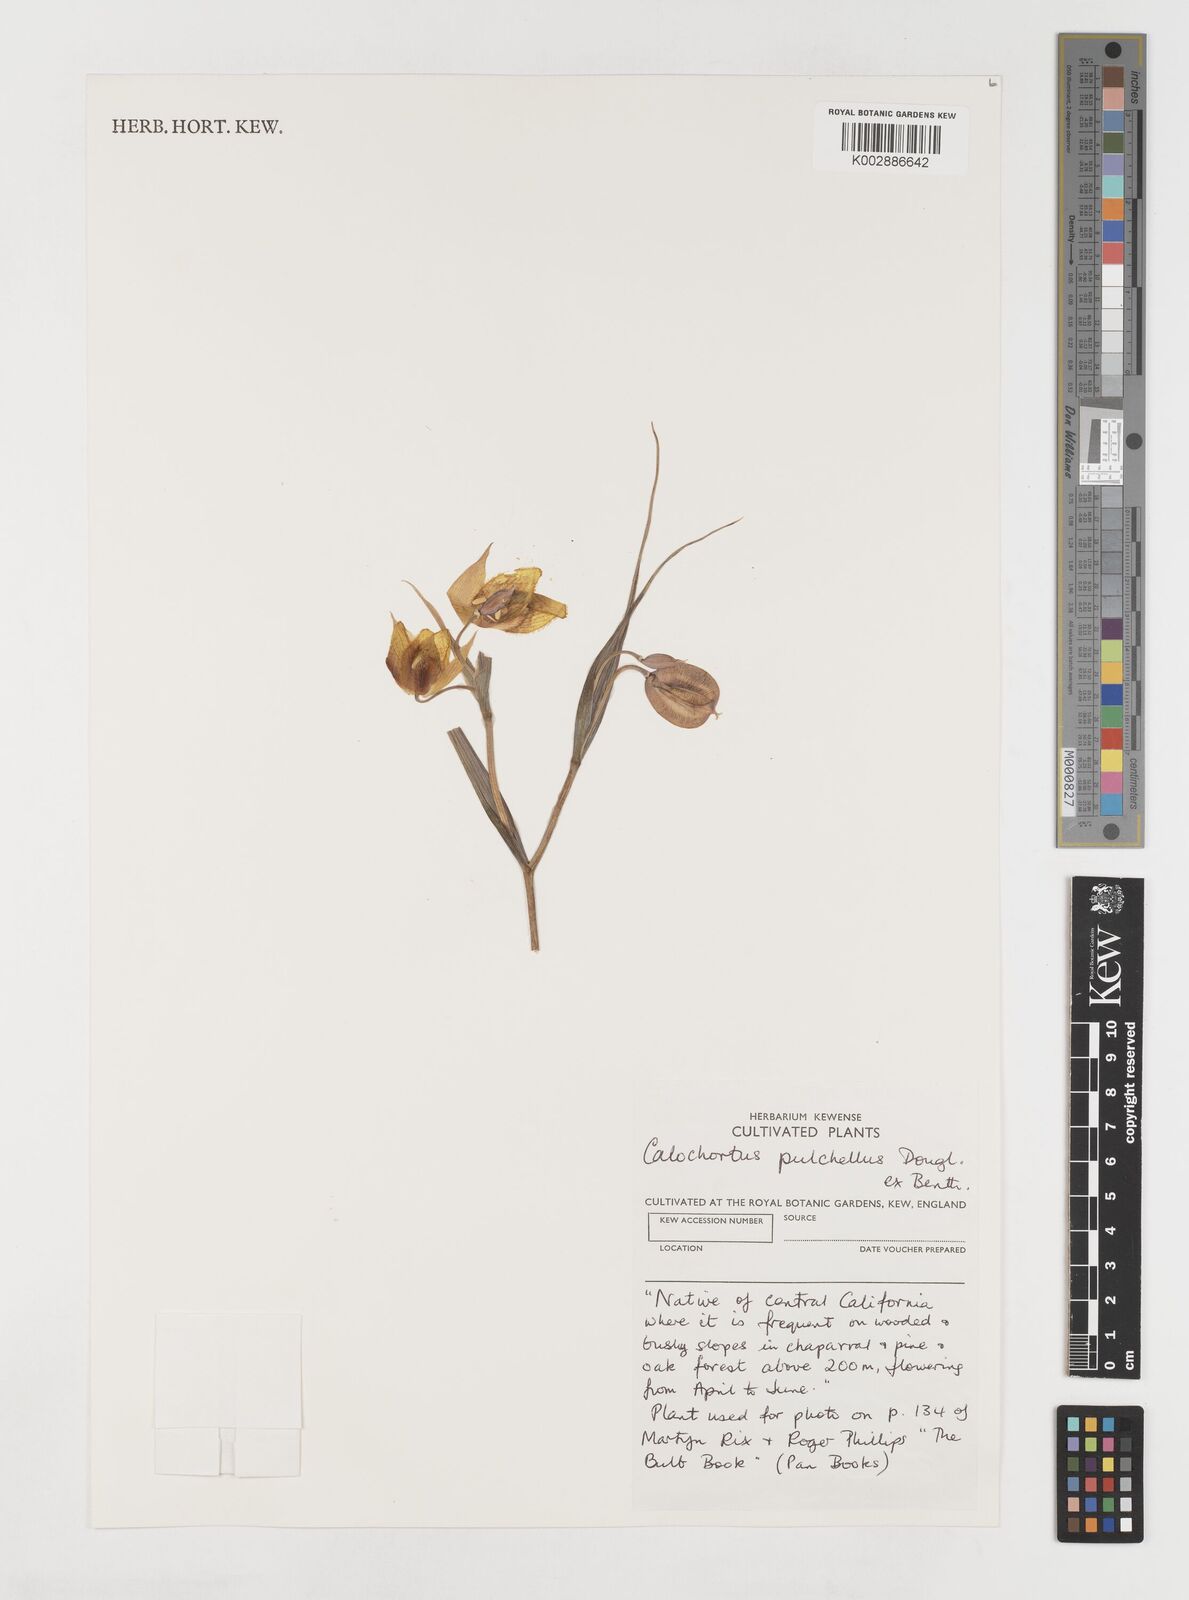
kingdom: Plantae
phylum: Tracheophyta
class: Liliopsida
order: Liliales
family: Liliaceae
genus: Calochortus
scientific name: Calochortus pulchellus
